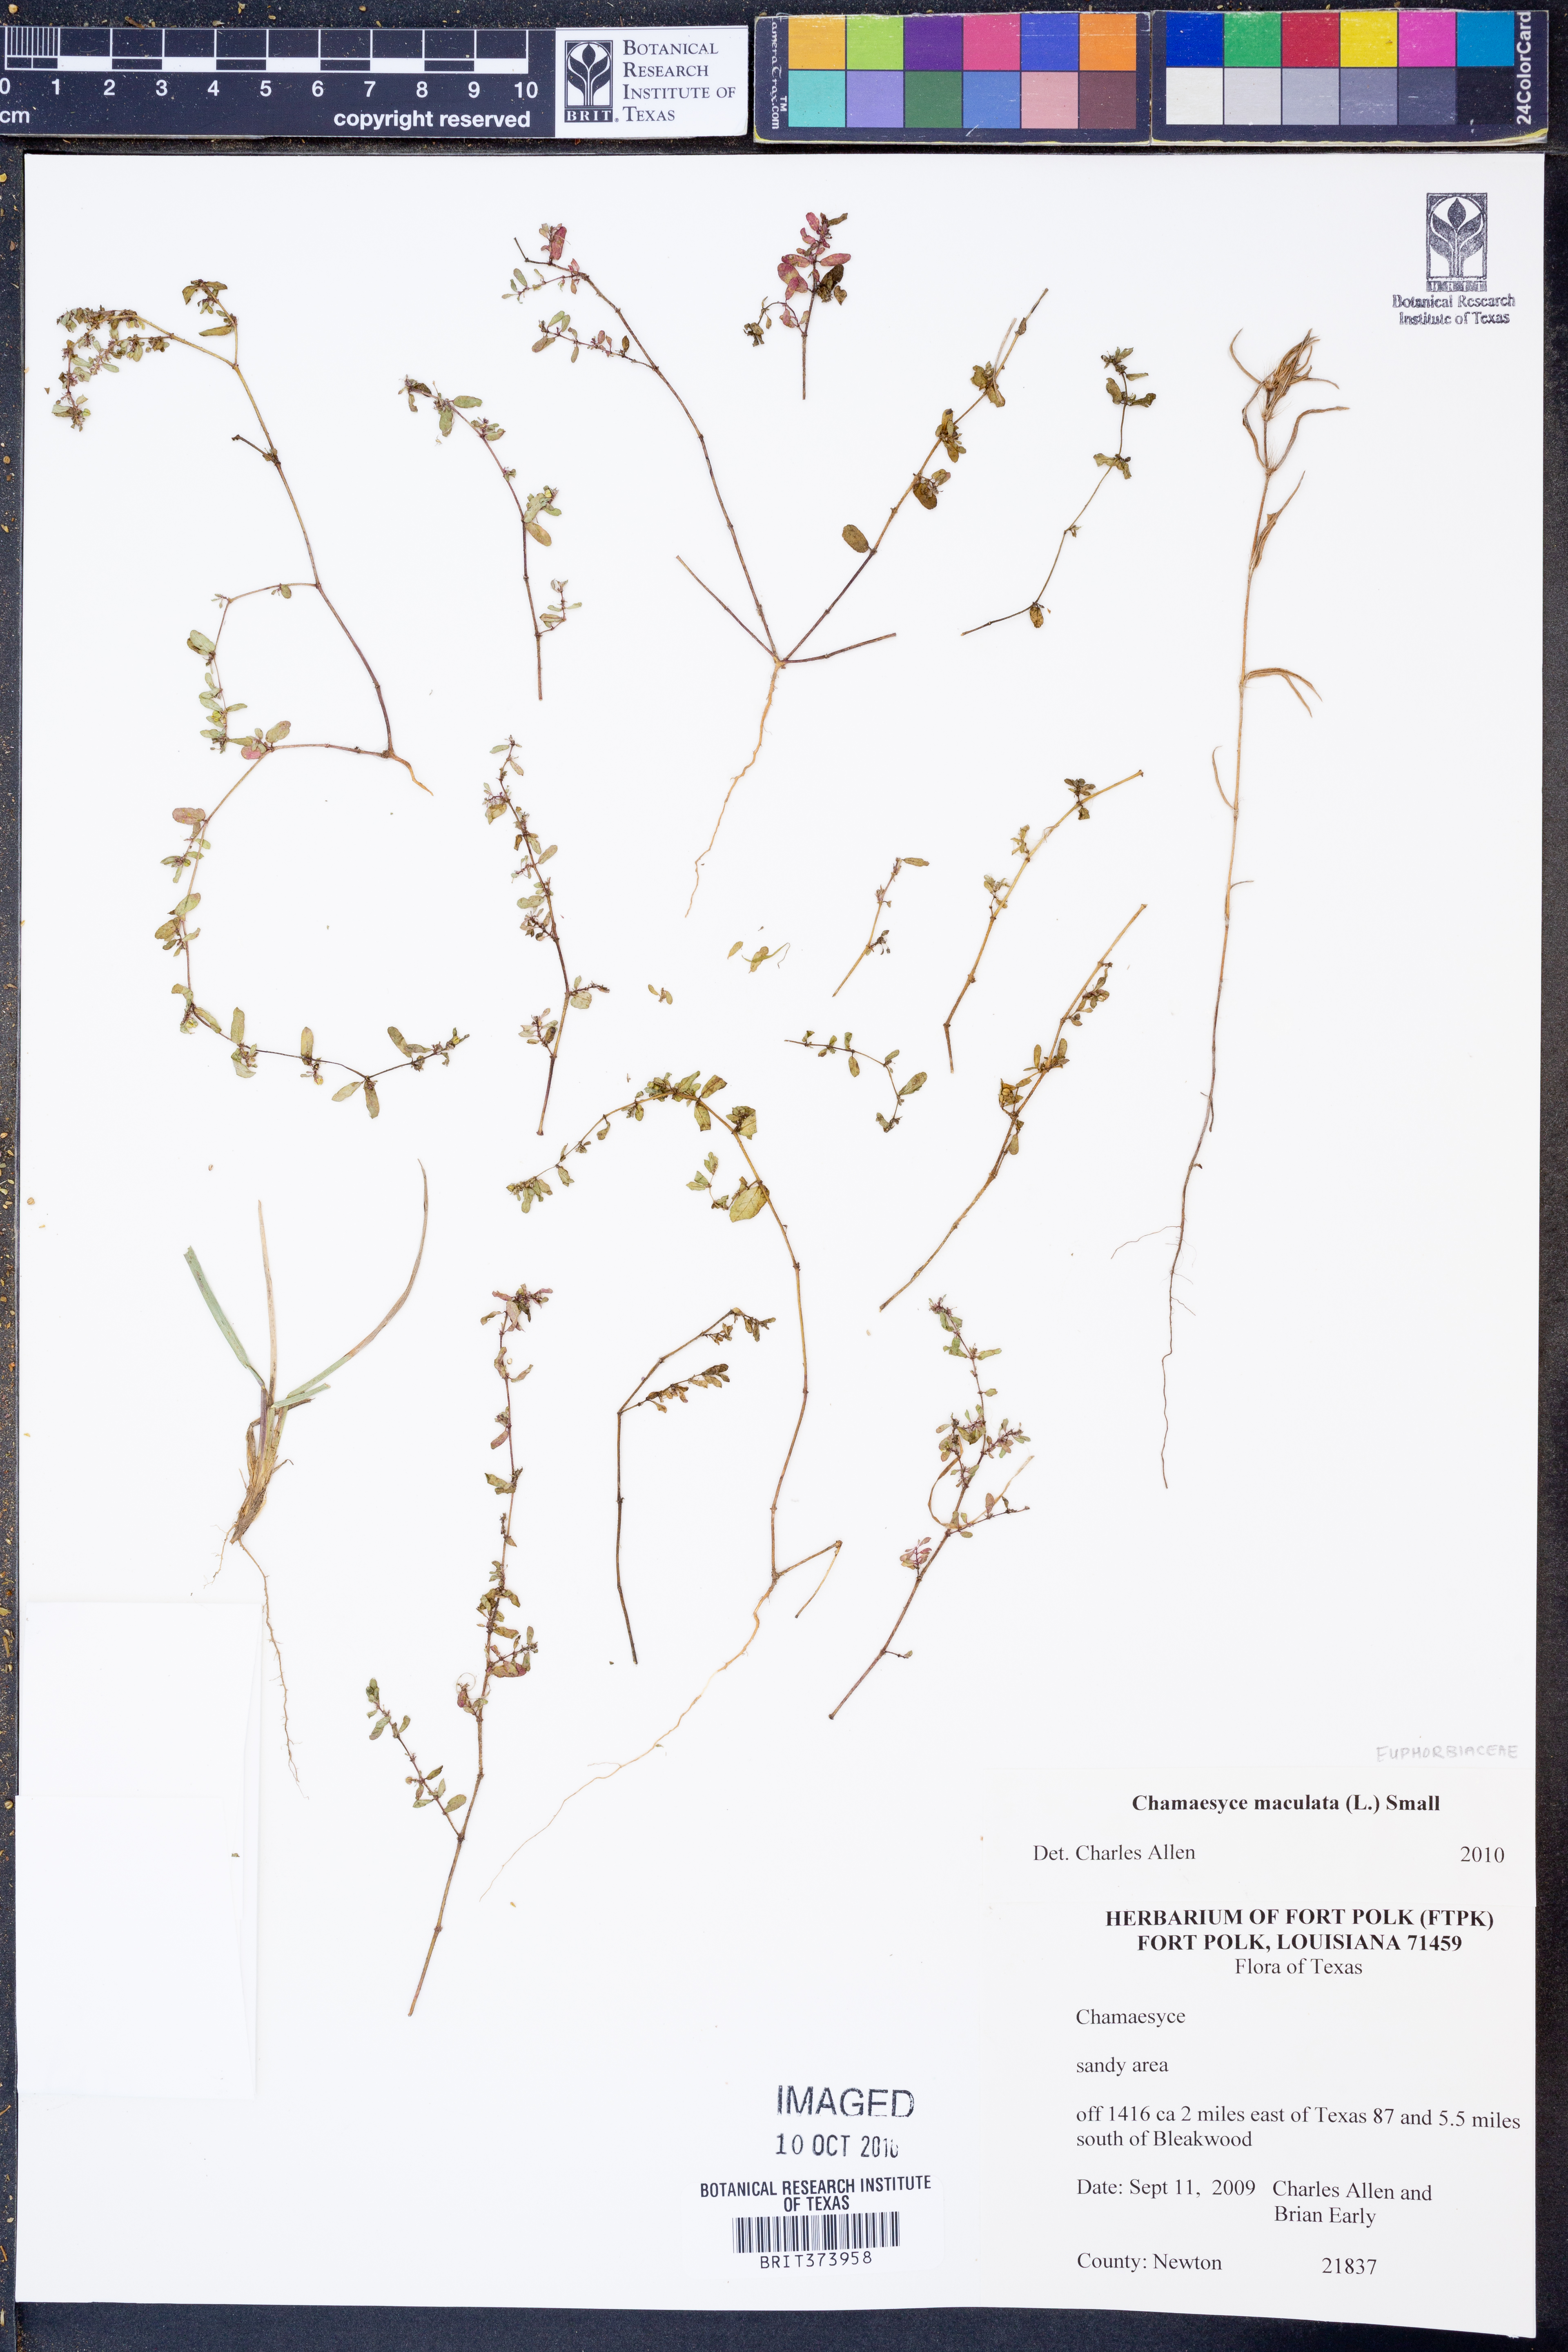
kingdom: Plantae
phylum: Tracheophyta
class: Magnoliopsida
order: Malpighiales
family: Euphorbiaceae
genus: Euphorbia
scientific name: Euphorbia maculata
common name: Spotted spurge
